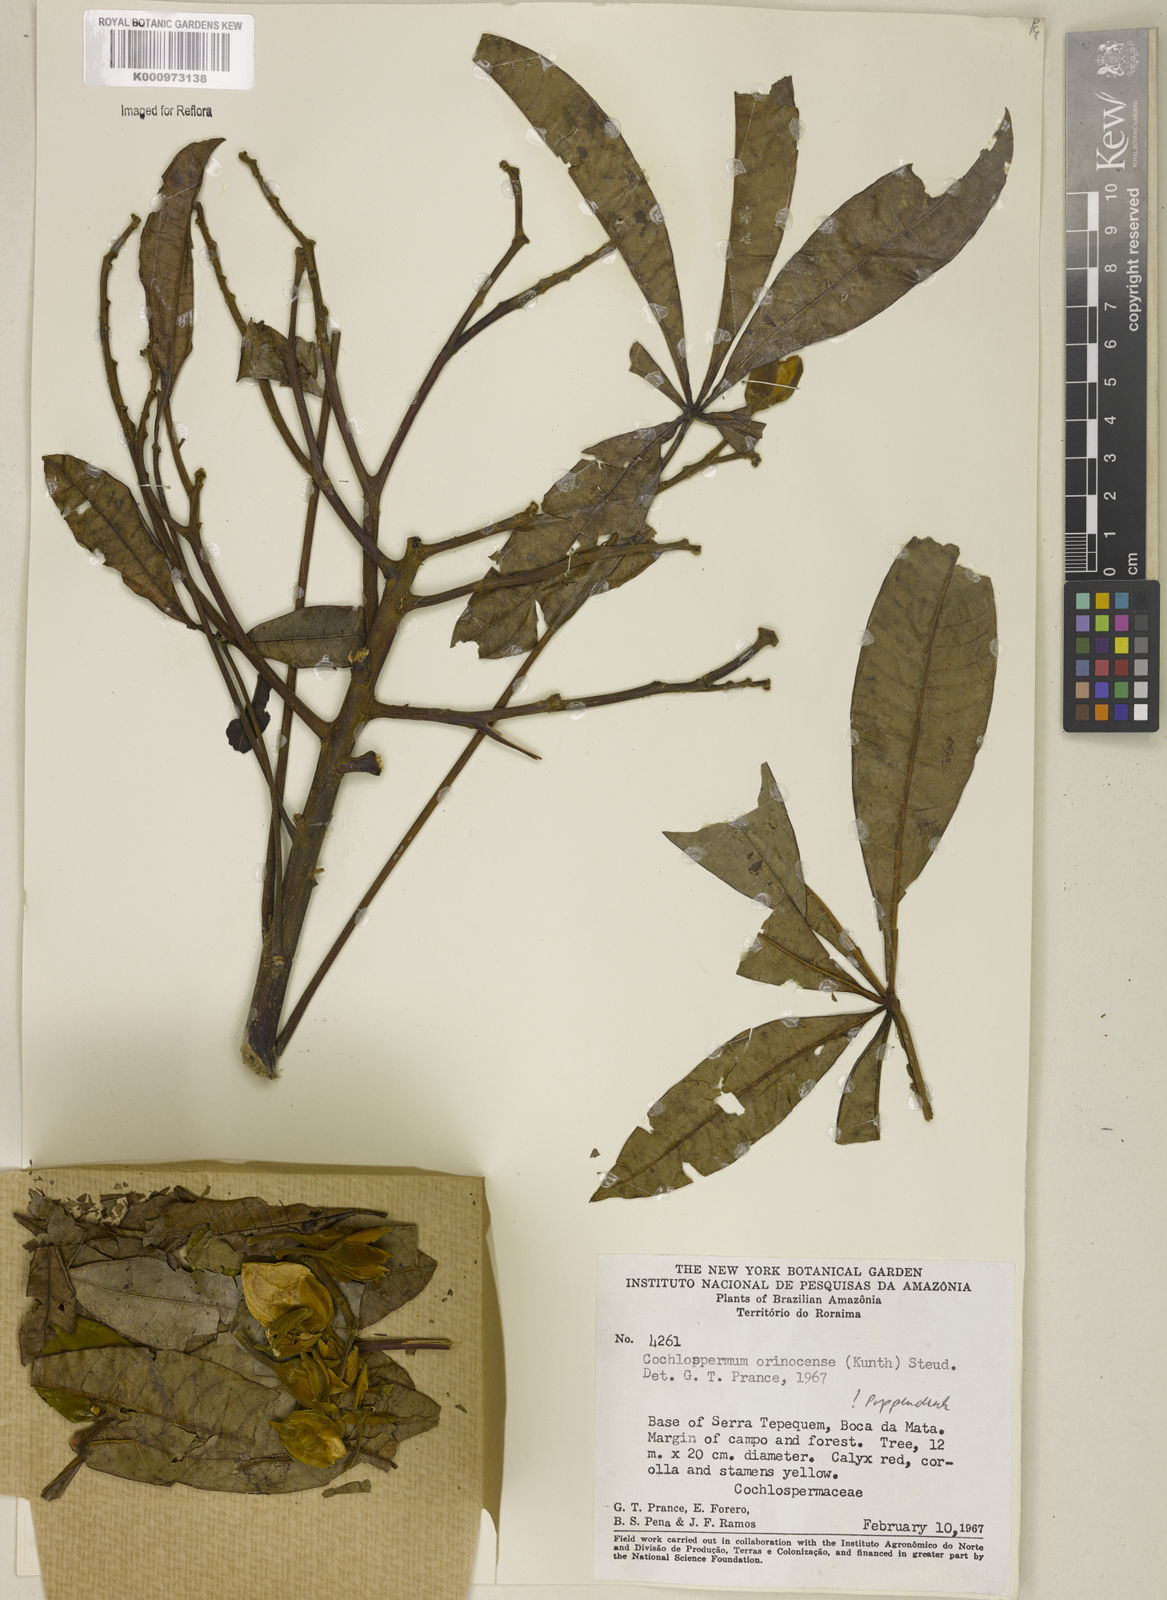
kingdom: Plantae
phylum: Tracheophyta
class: Magnoliopsida
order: Malvales
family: Cochlospermaceae
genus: Cochlospermum
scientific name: Cochlospermum orinocense
